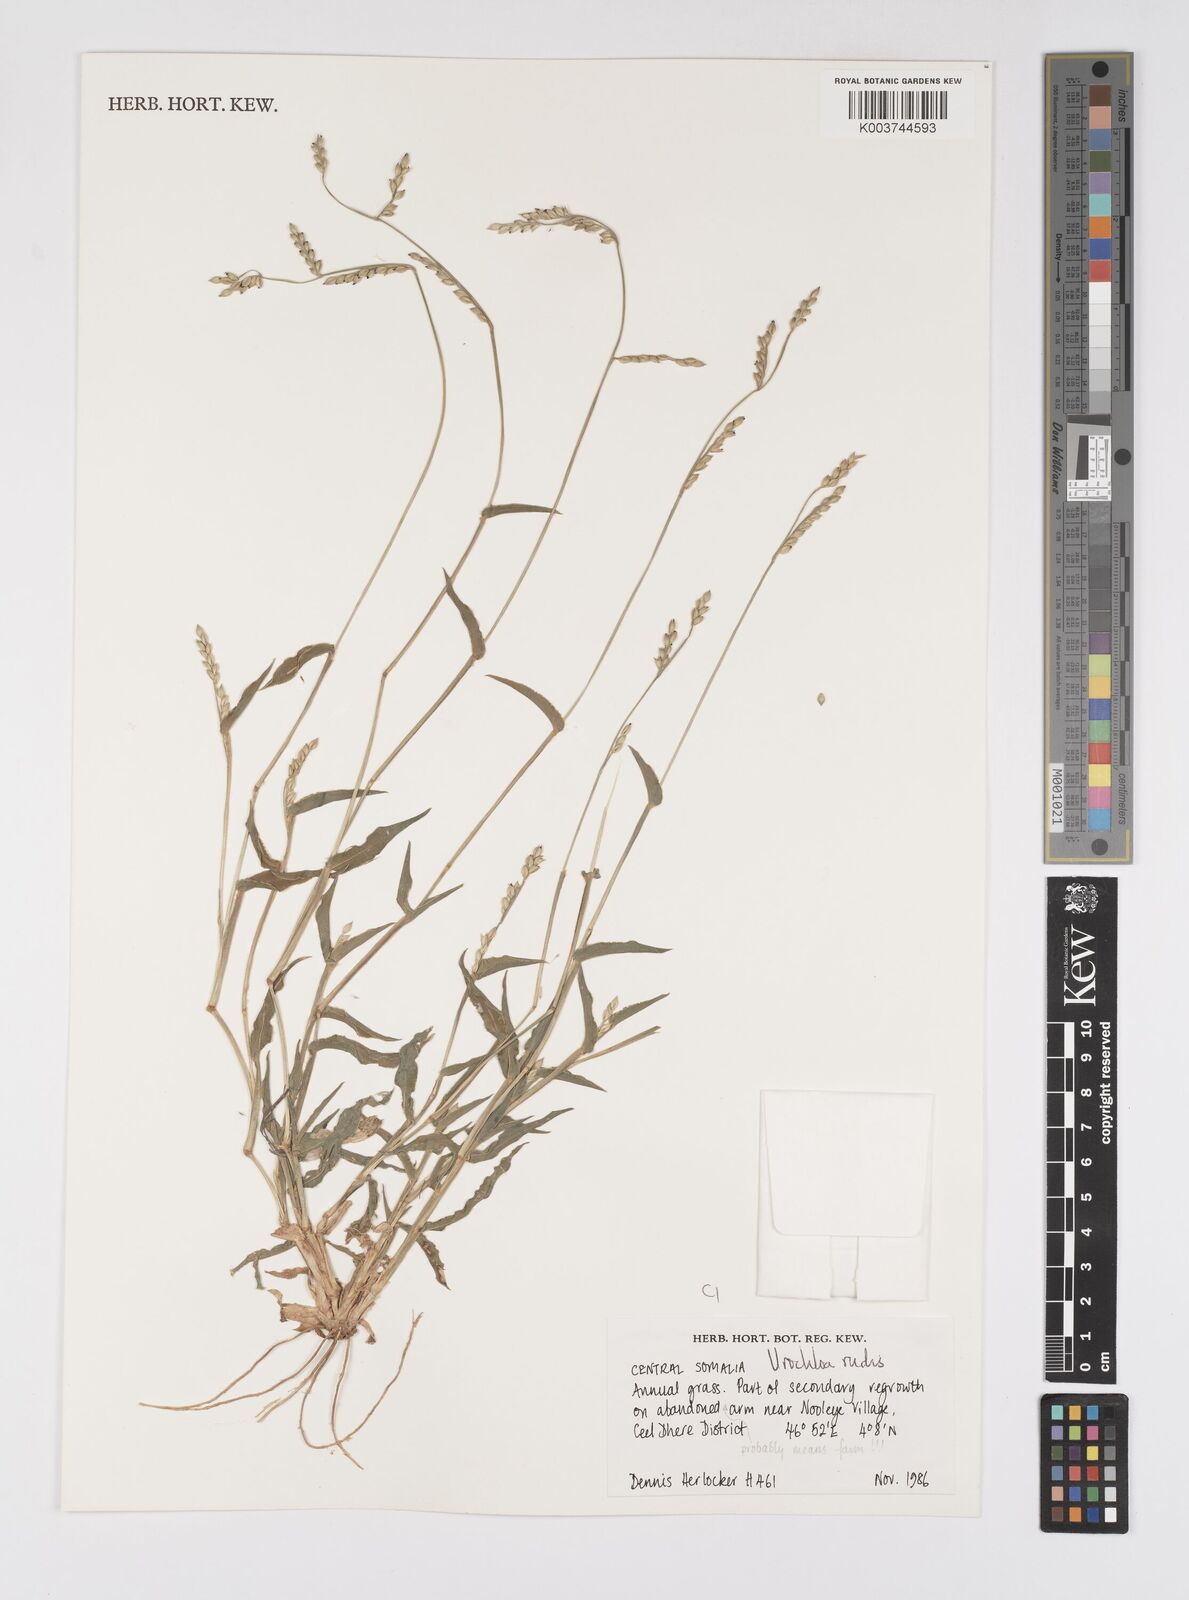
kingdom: Plantae
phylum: Tracheophyta
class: Liliopsida
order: Poales
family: Poaceae
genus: Urochloa
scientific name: Urochloa rudis
